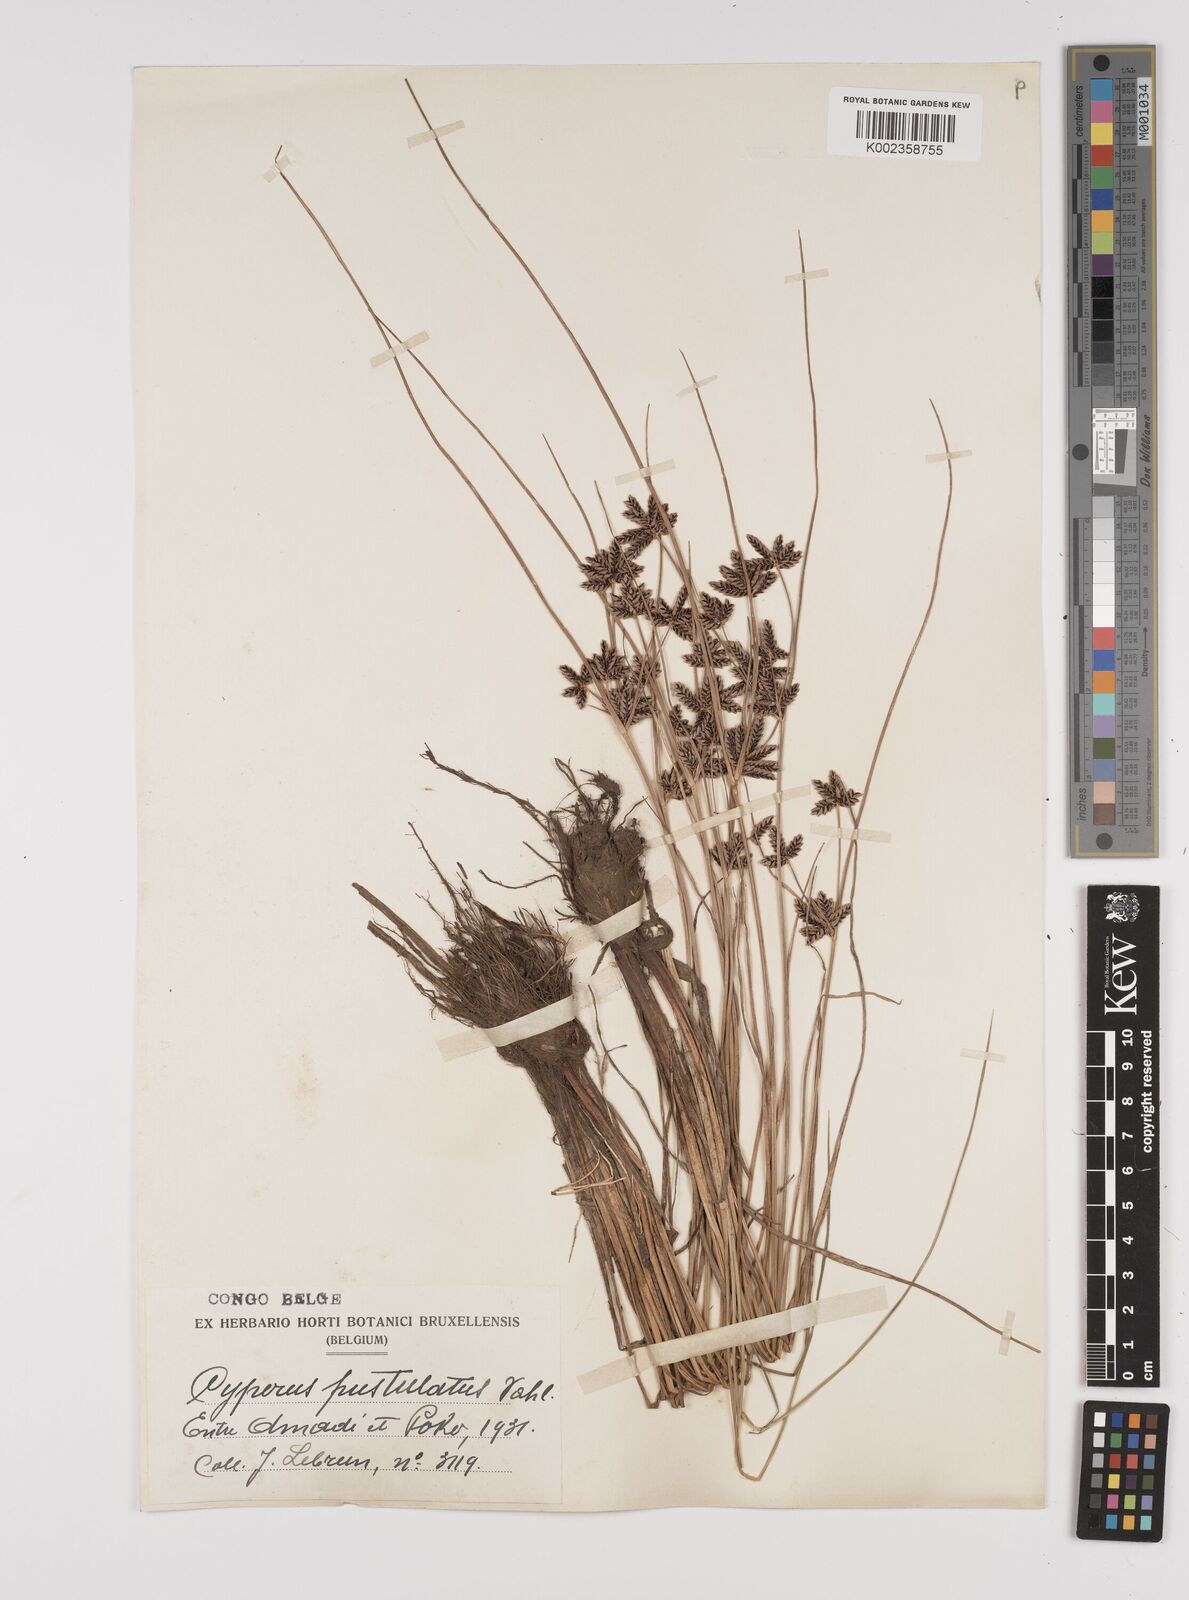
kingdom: Plantae
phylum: Tracheophyta
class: Liliopsida
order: Poales
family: Cyperaceae
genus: Cyperus
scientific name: Cyperus pustulatus
